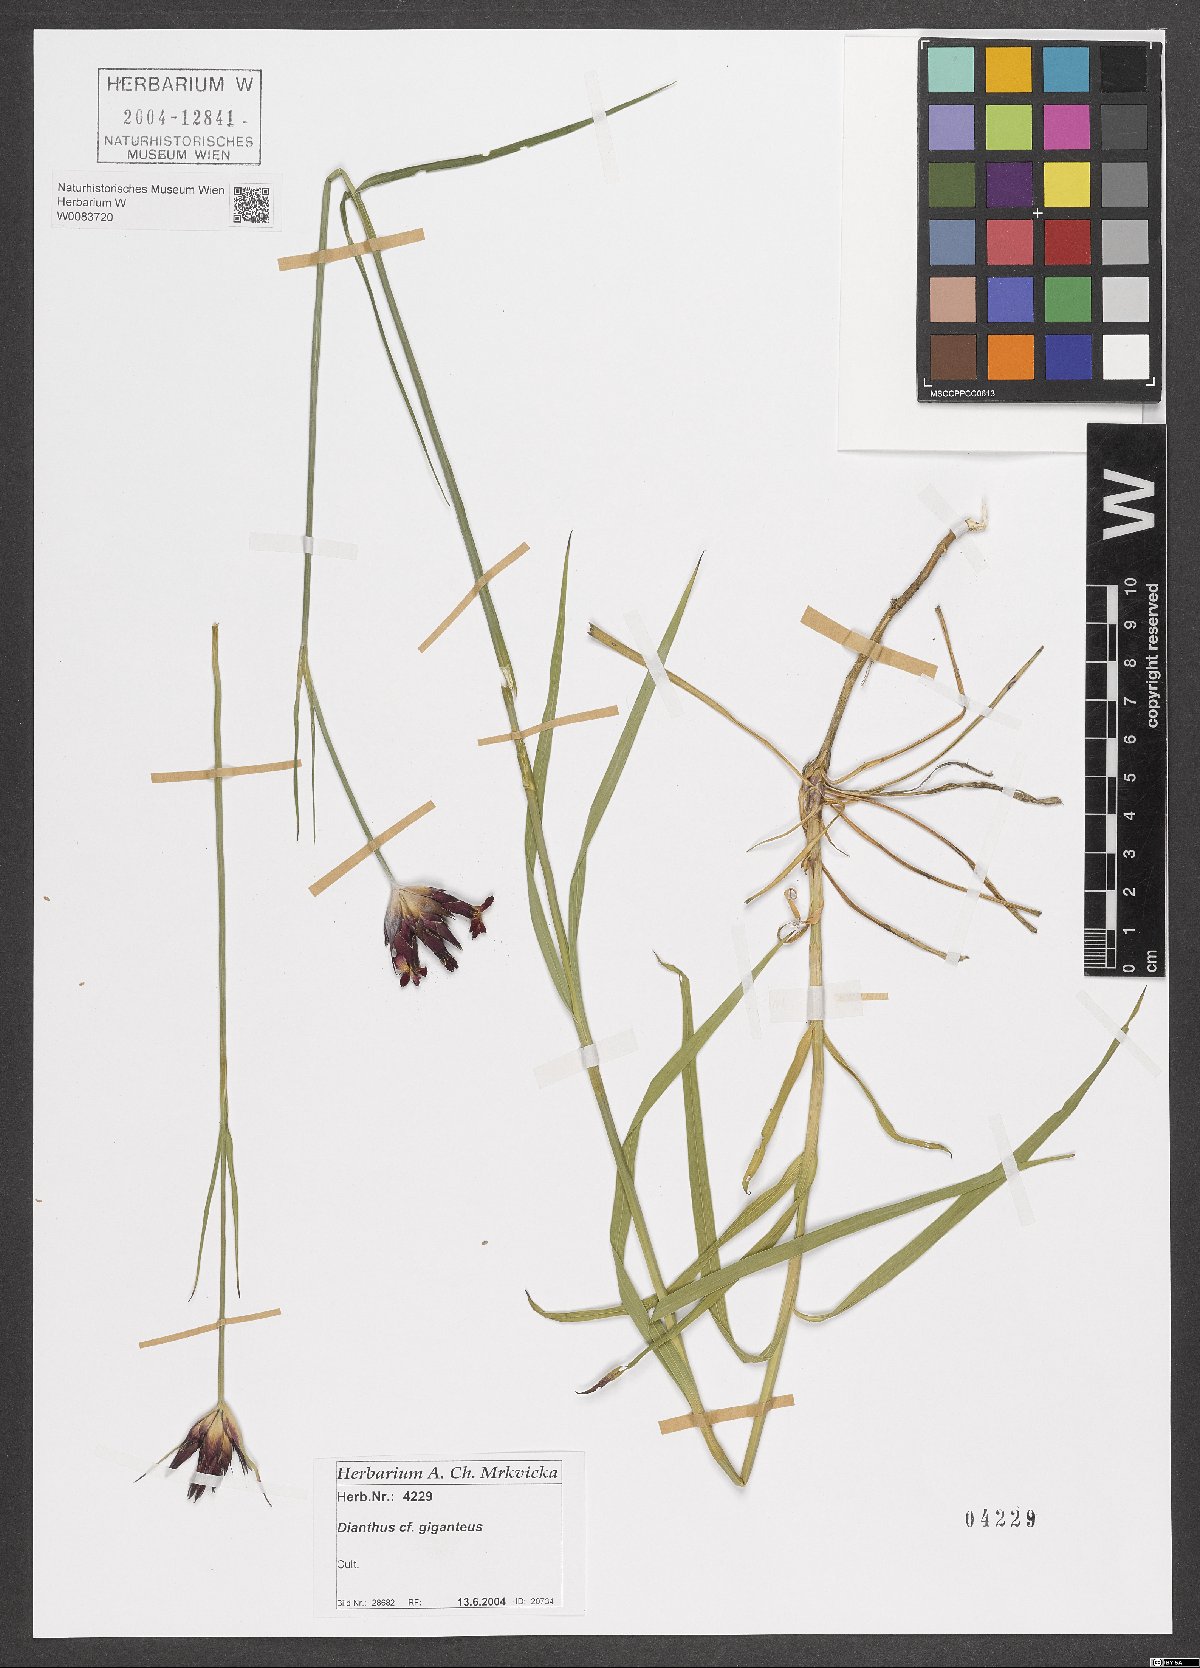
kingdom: Plantae
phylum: Tracheophyta
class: Magnoliopsida
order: Caryophyllales
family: Caryophyllaceae
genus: Dianthus
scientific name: Dianthus giganteus
